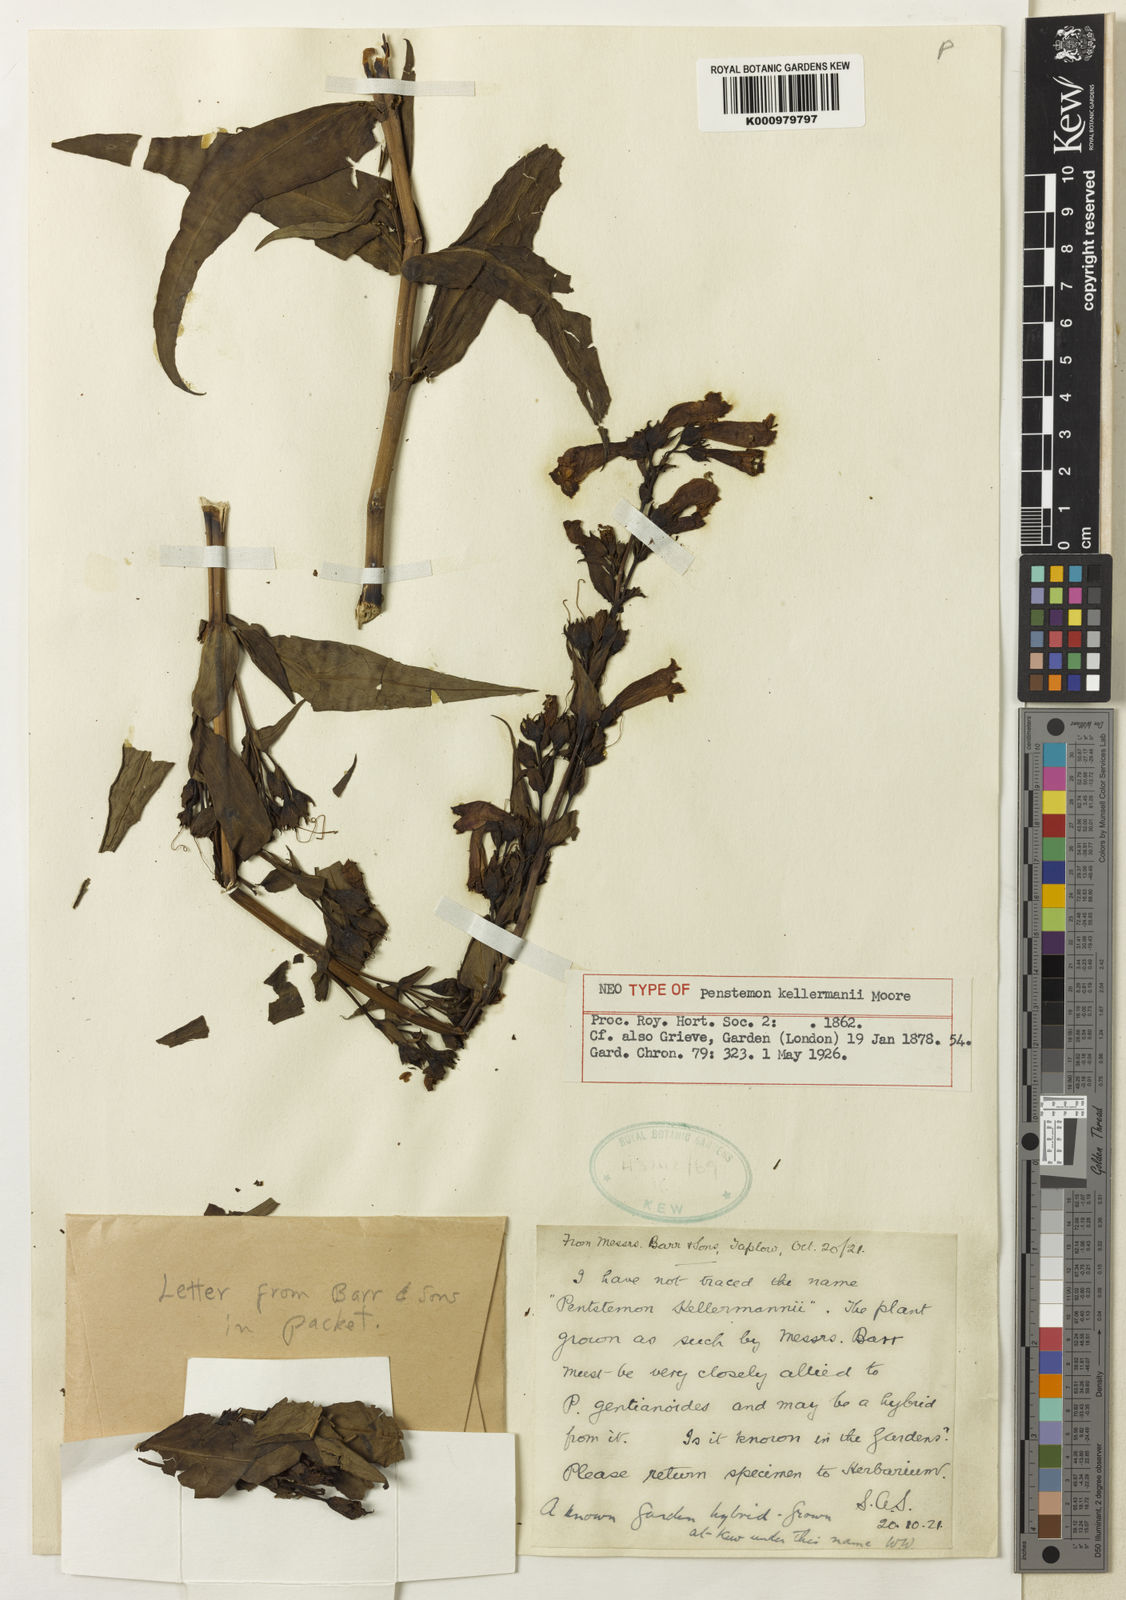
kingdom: Plantae
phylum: Tracheophyta
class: Magnoliopsida
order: Lamiales
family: Plantaginaceae
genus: Penstemon
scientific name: Penstemon
